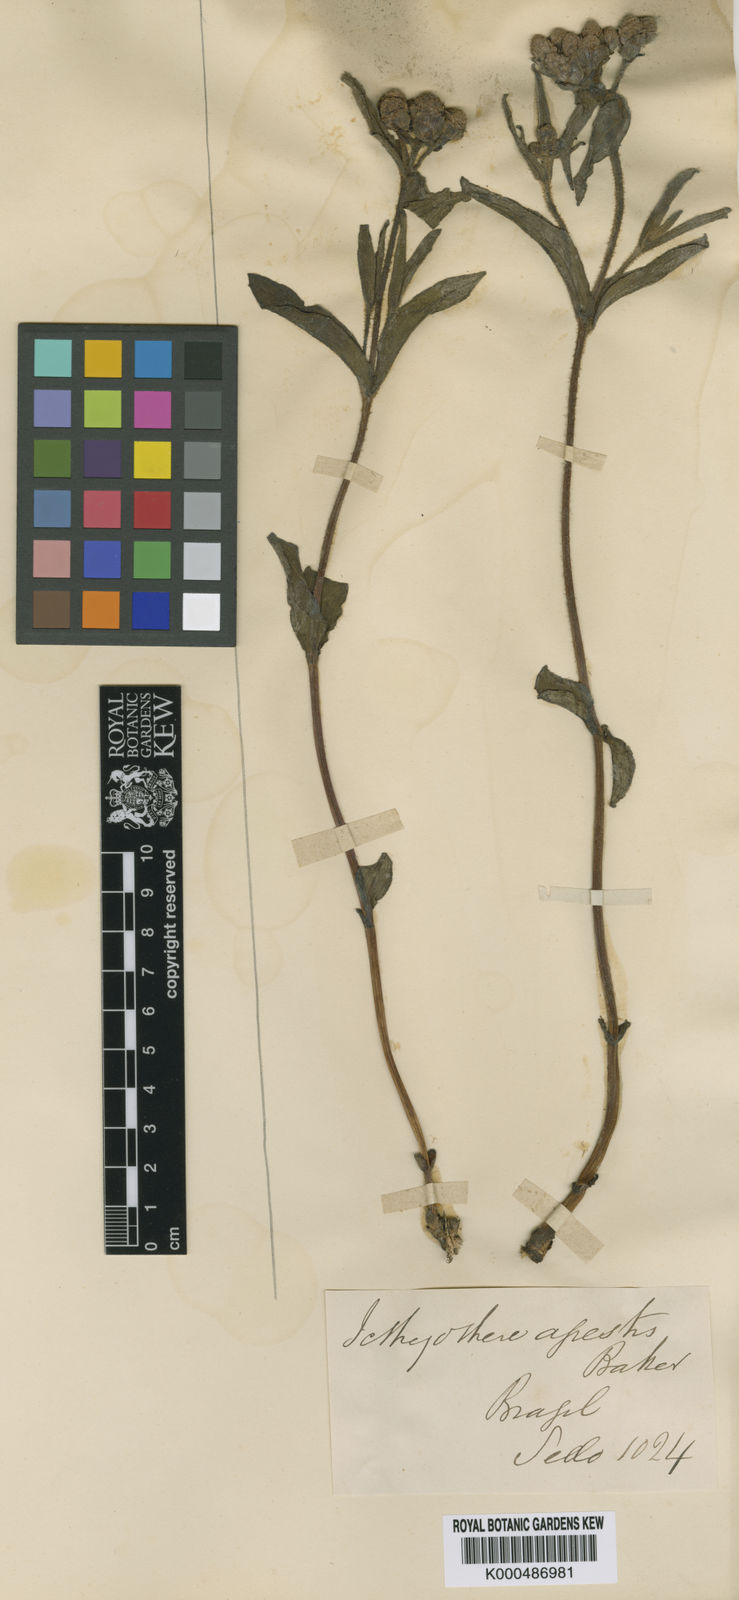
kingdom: Plantae
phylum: Tracheophyta
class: Magnoliopsida
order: Asterales
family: Asteraceae
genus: Ichthyothere
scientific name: Ichthyothere
